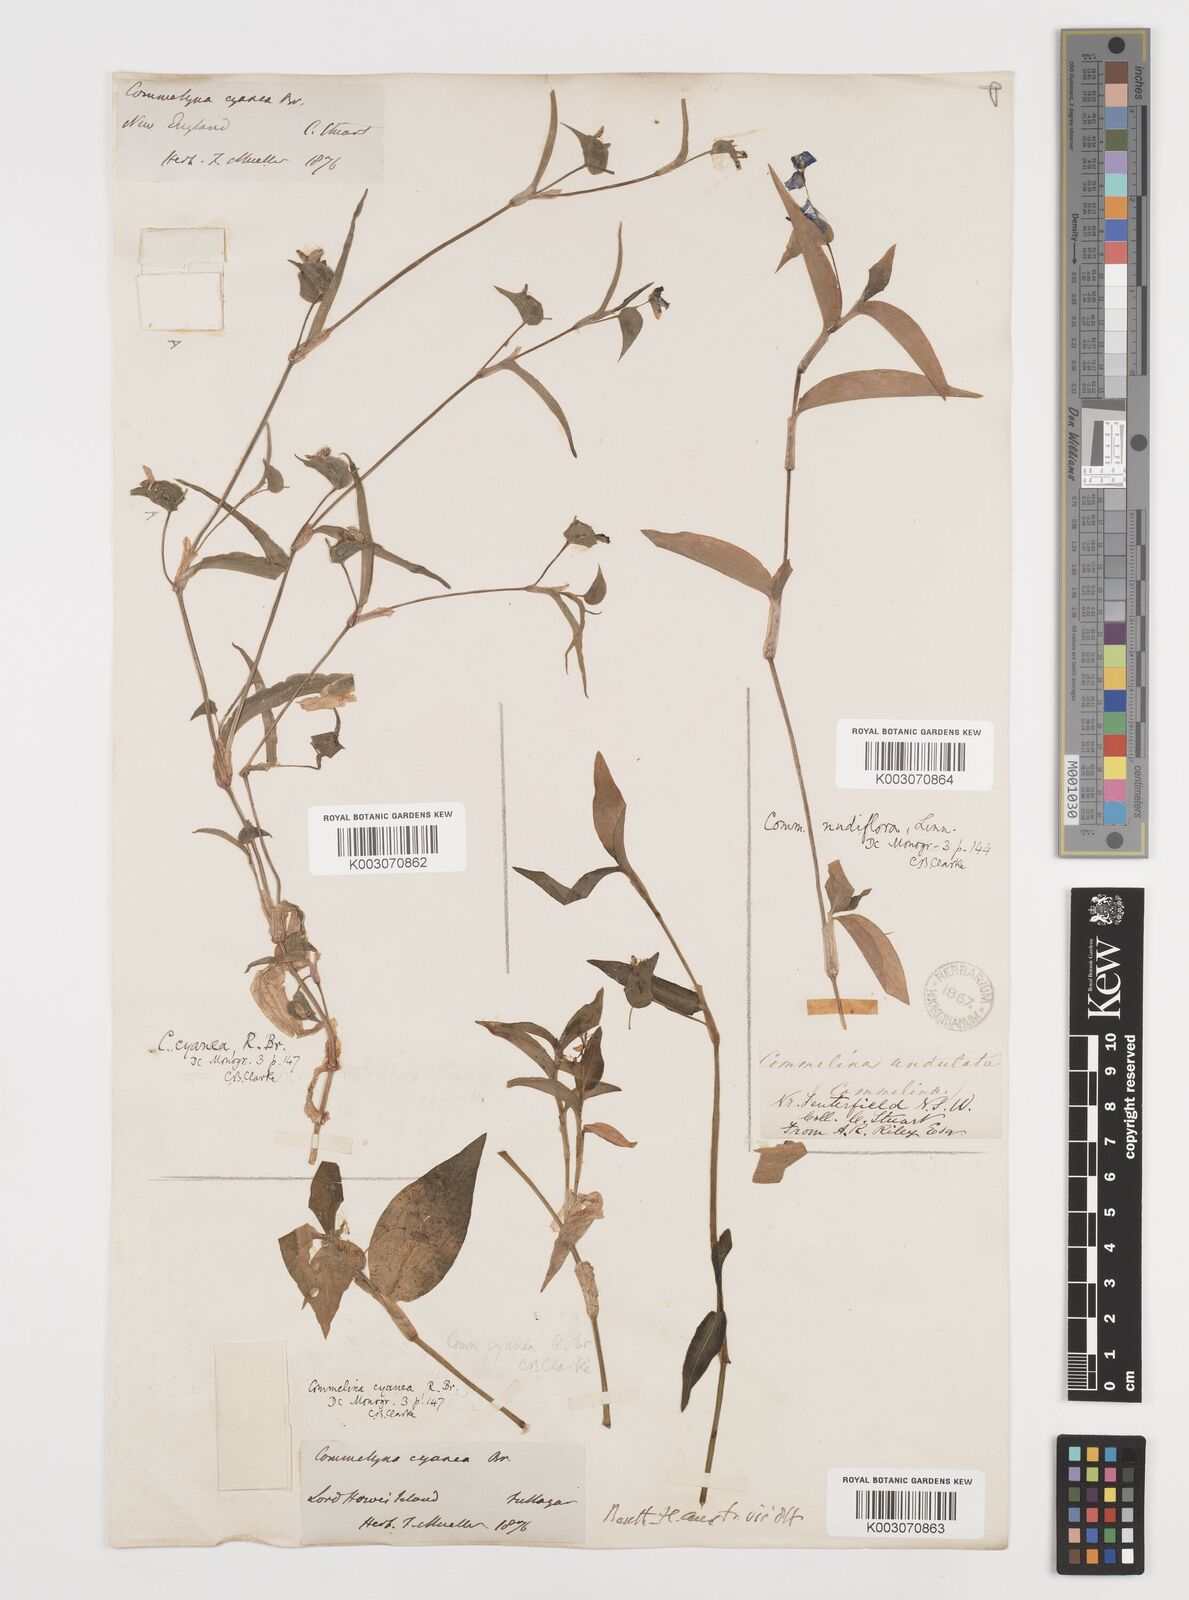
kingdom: Plantae
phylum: Tracheophyta
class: Liliopsida
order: Commelinales
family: Commelinaceae
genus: Commelina
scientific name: Commelina cyanea
